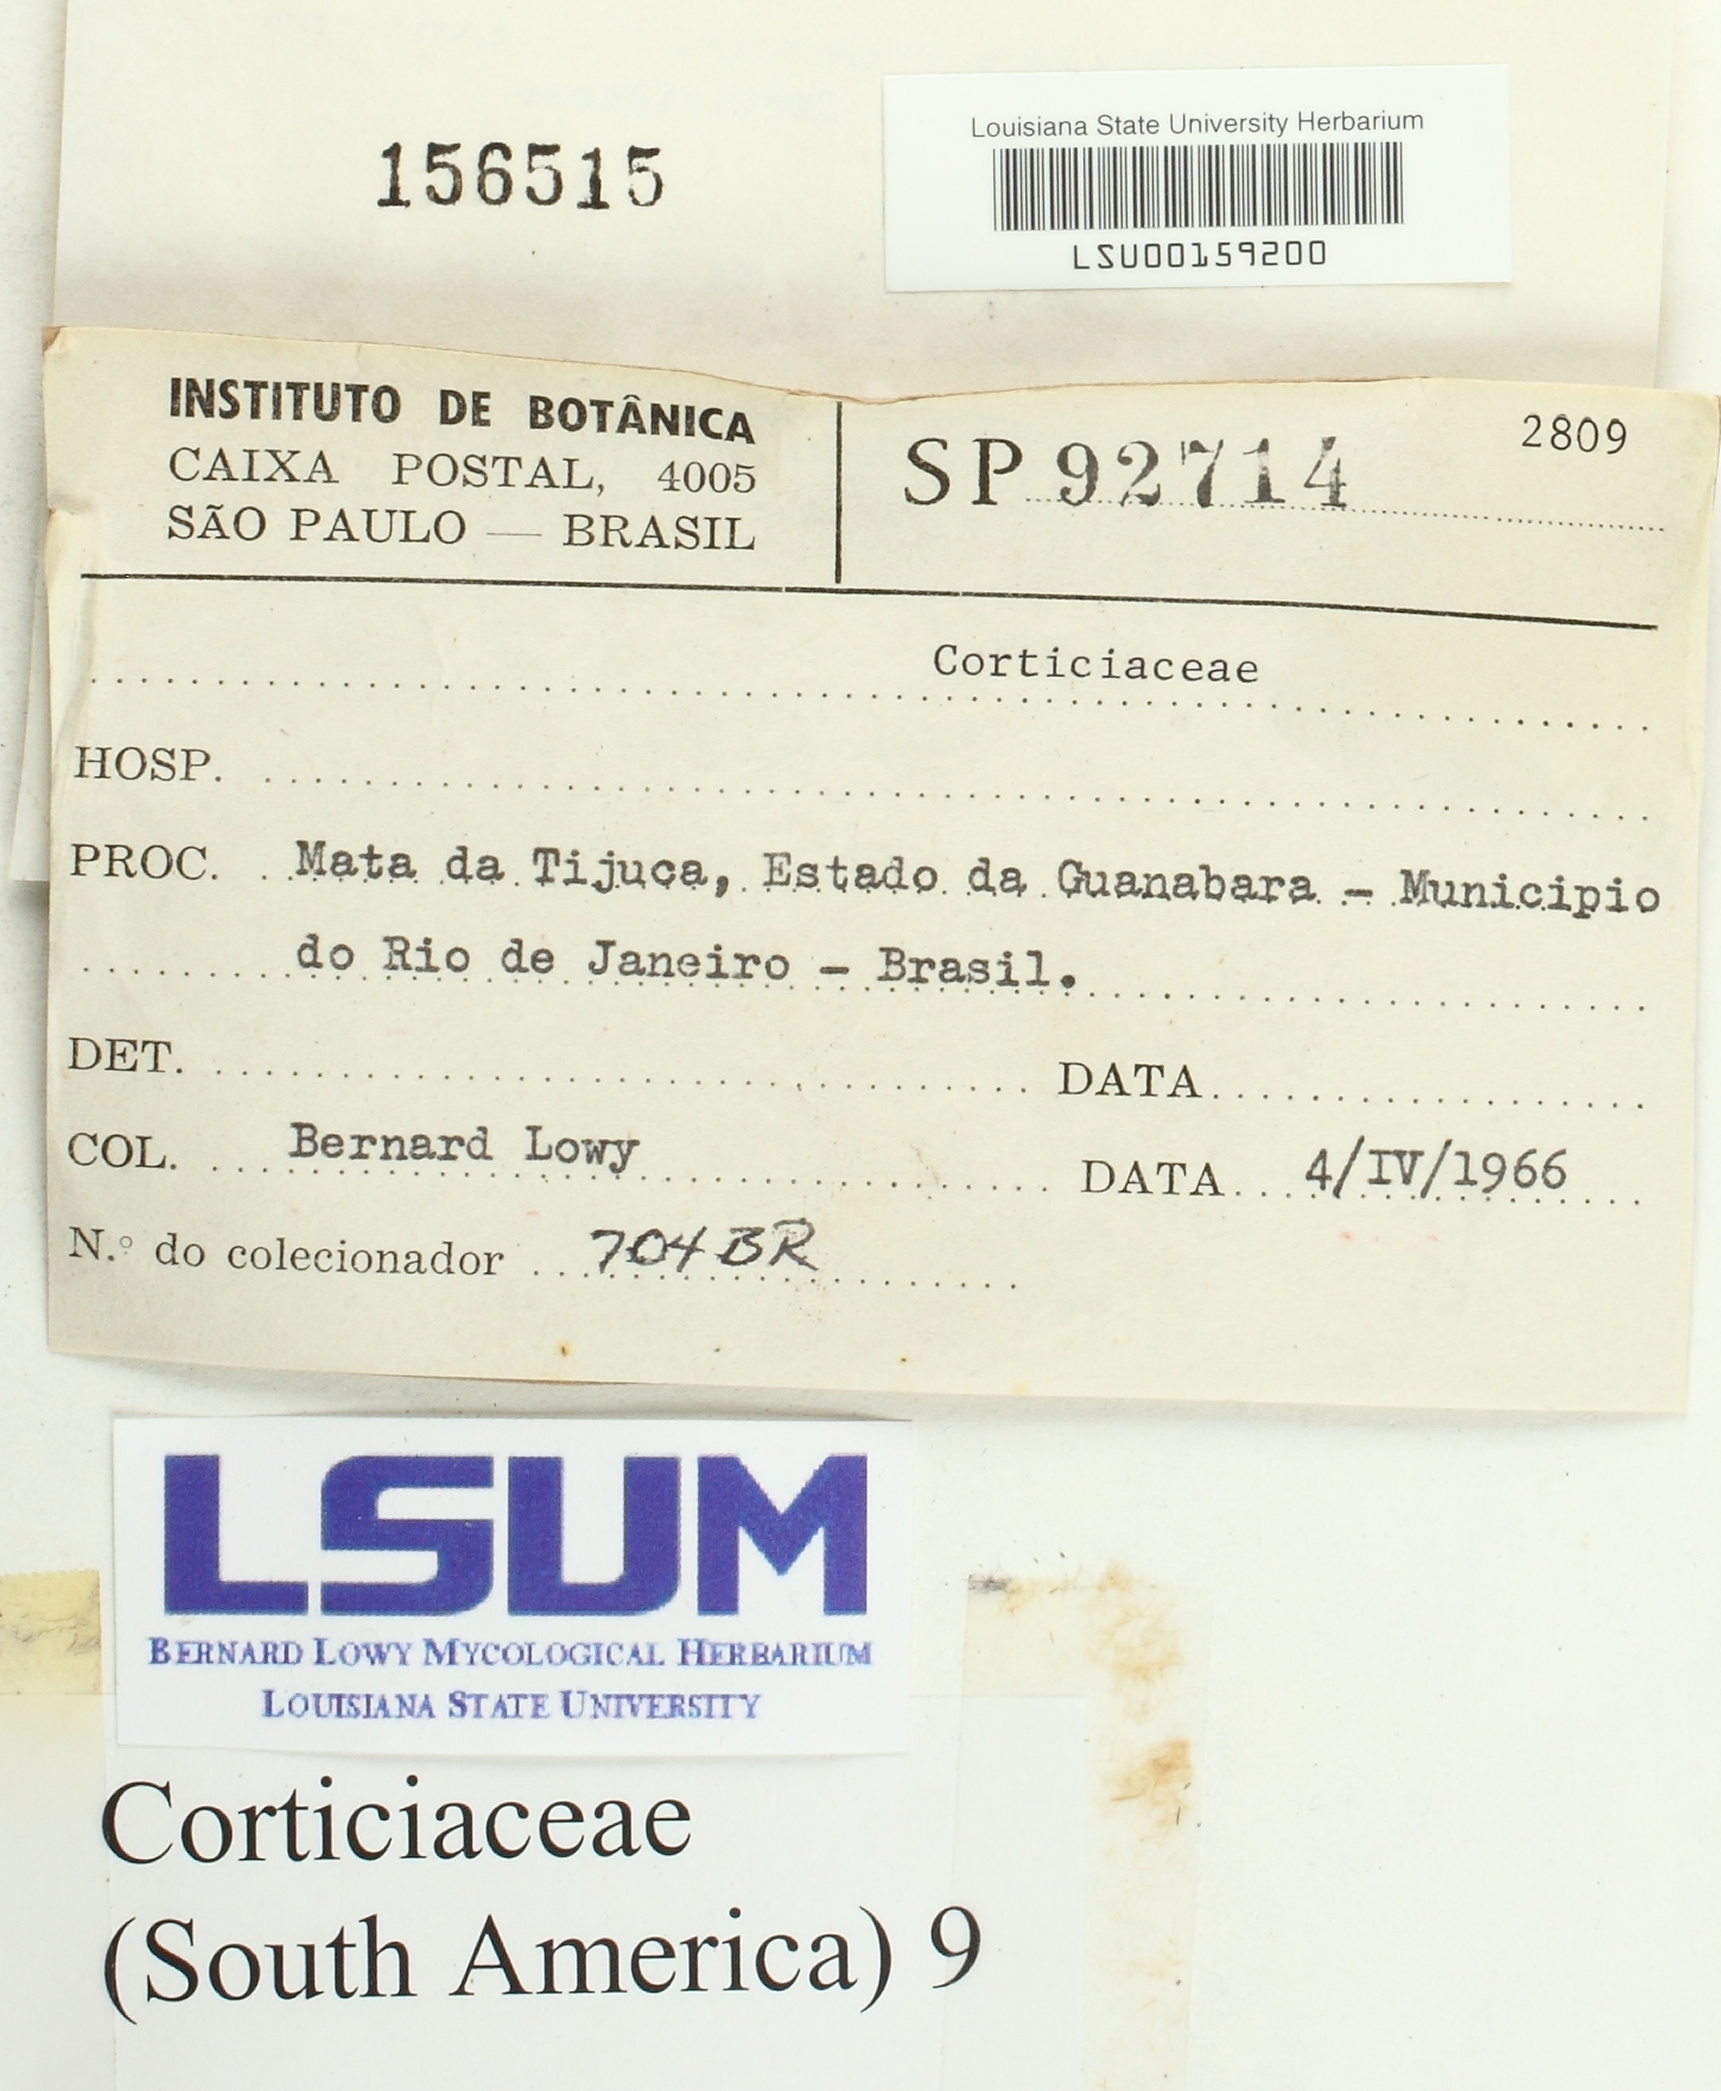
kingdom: Fungi
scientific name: Fungi
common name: Fungi
